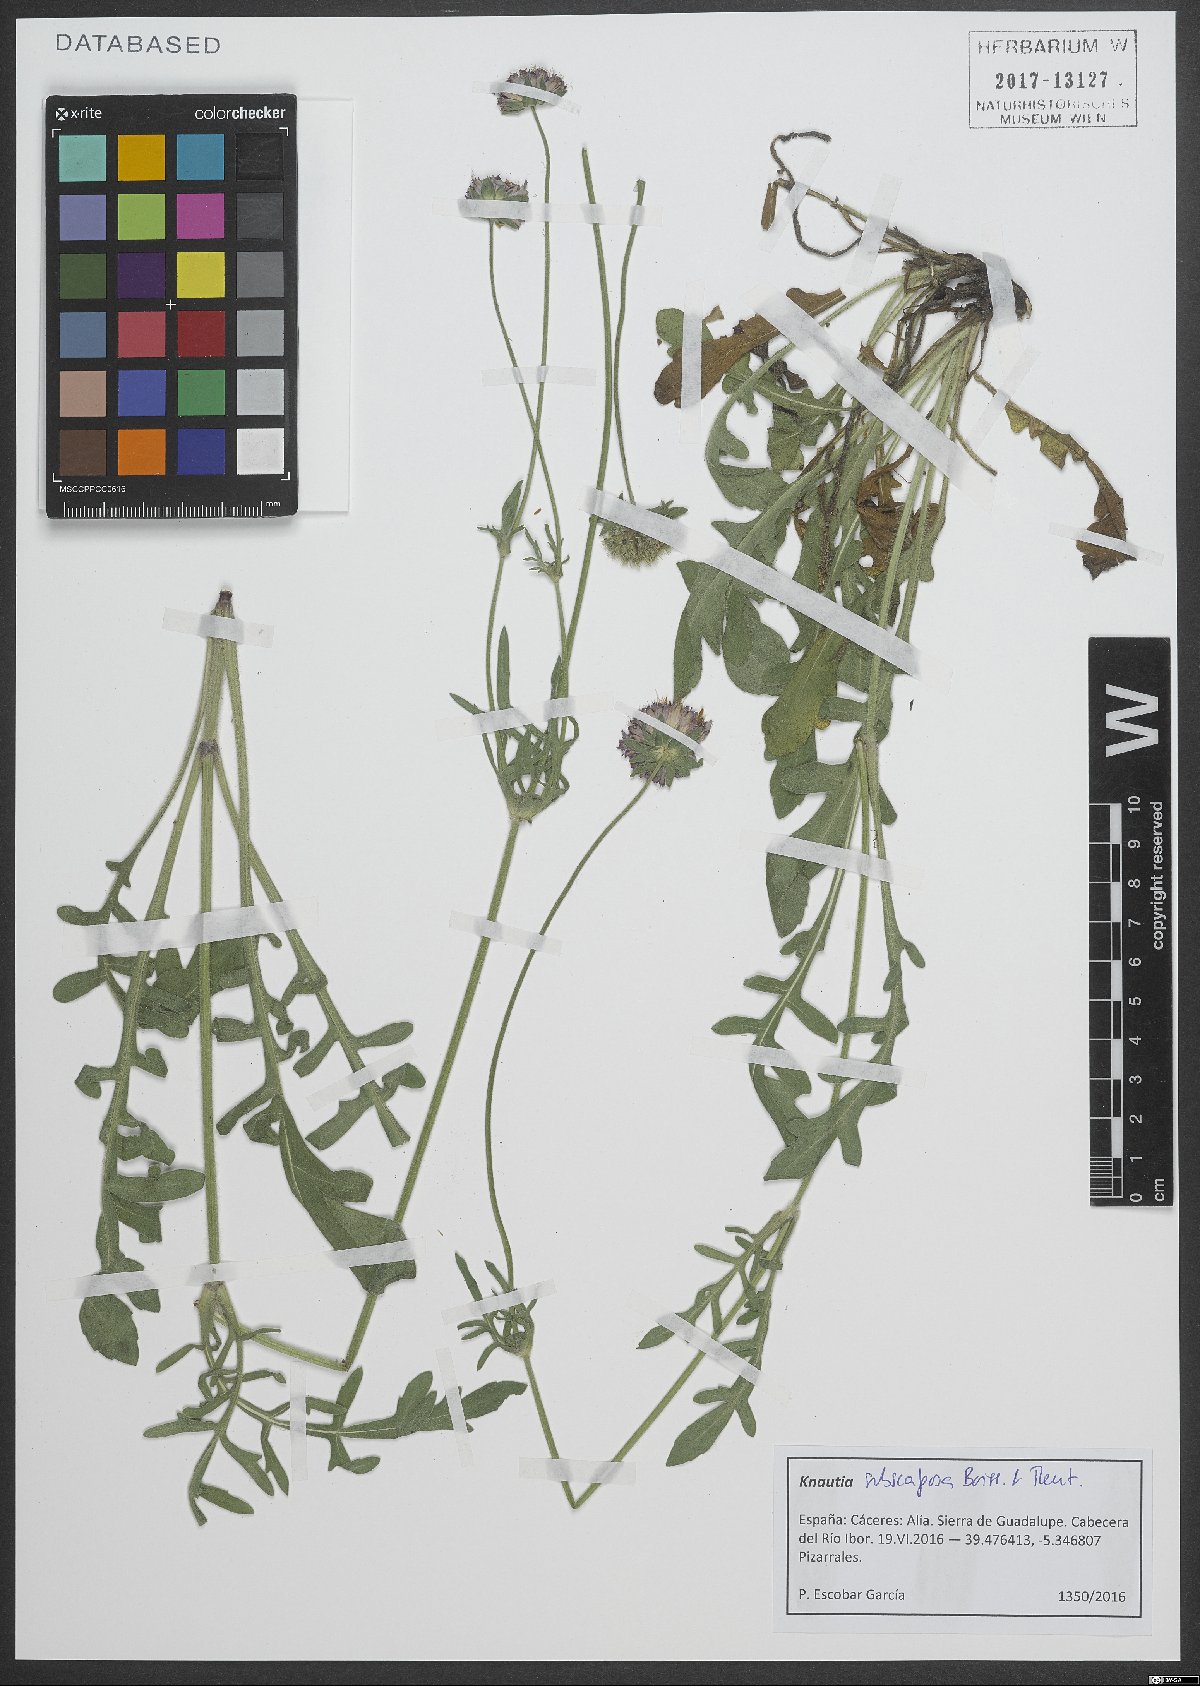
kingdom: Plantae
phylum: Tracheophyta
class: Magnoliopsida
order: Dipsacales
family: Caprifoliaceae
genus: Knautia
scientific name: Knautia subscaposa
